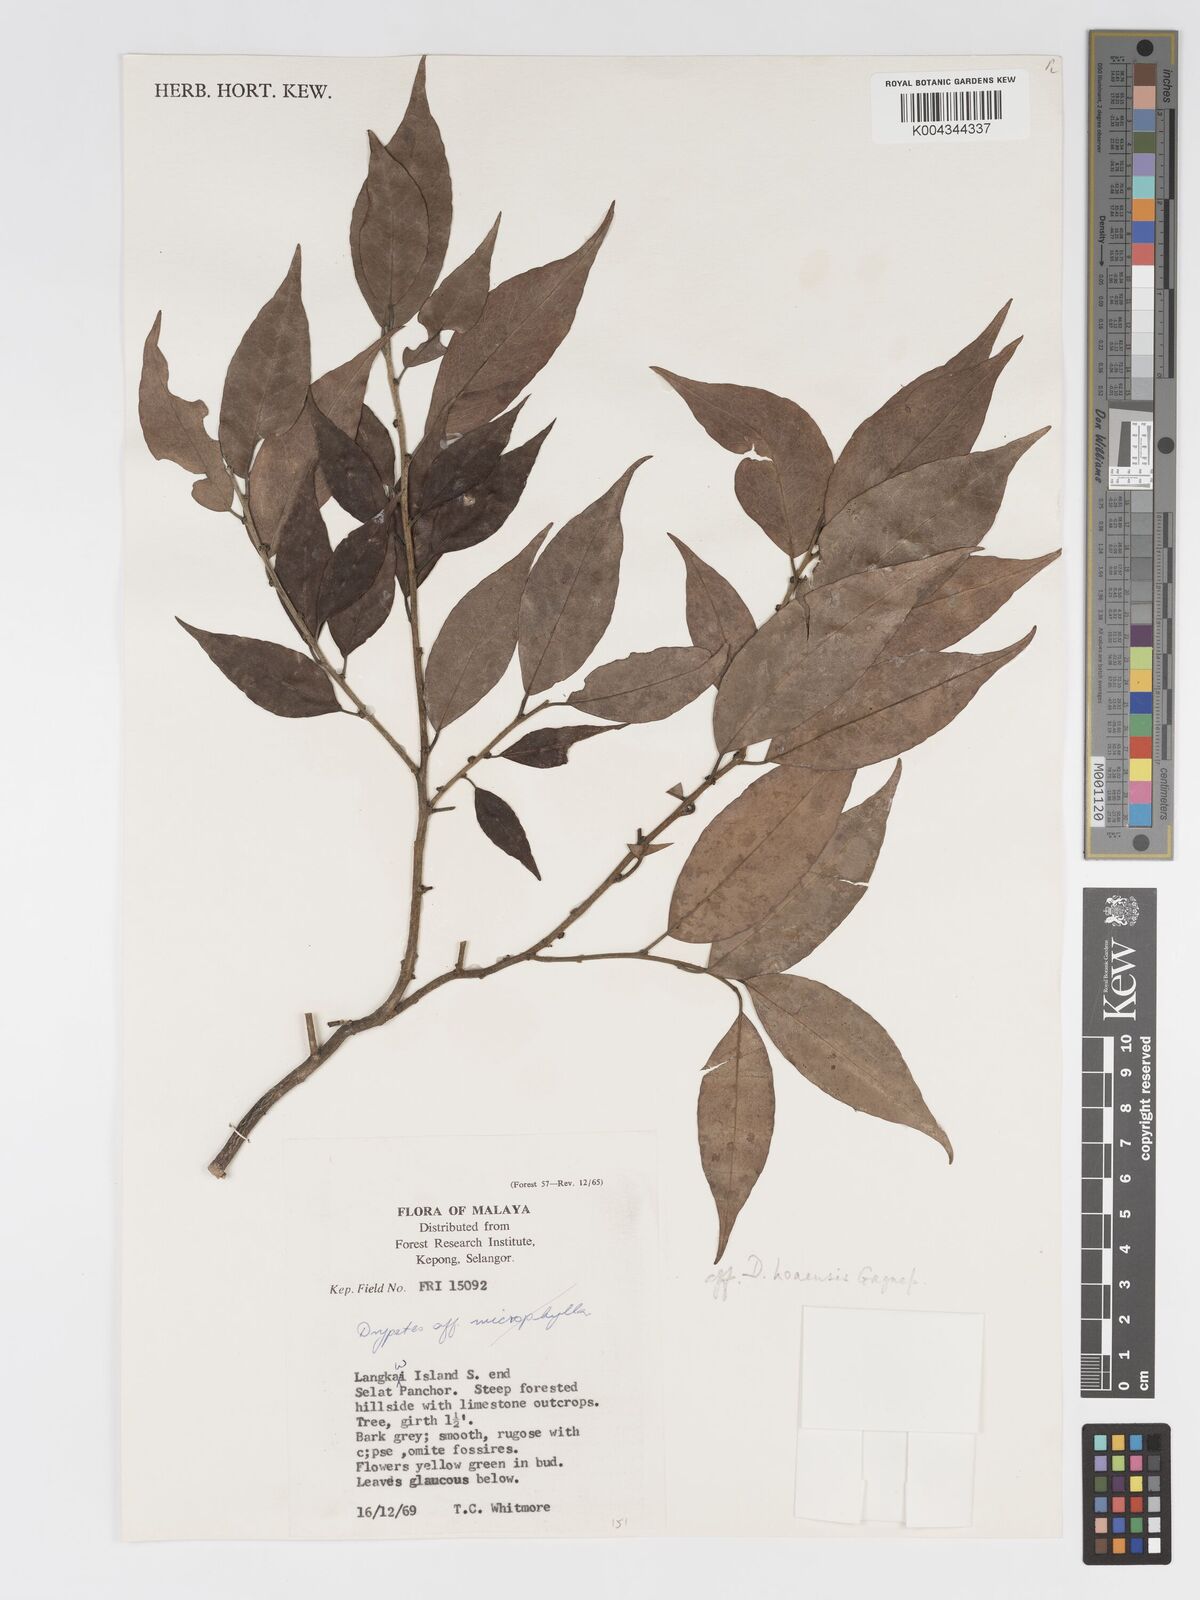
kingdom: Plantae
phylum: Tracheophyta
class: Magnoliopsida
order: Malpighiales
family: Putranjivaceae
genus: Drypetes
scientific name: Drypetes hoaensis
